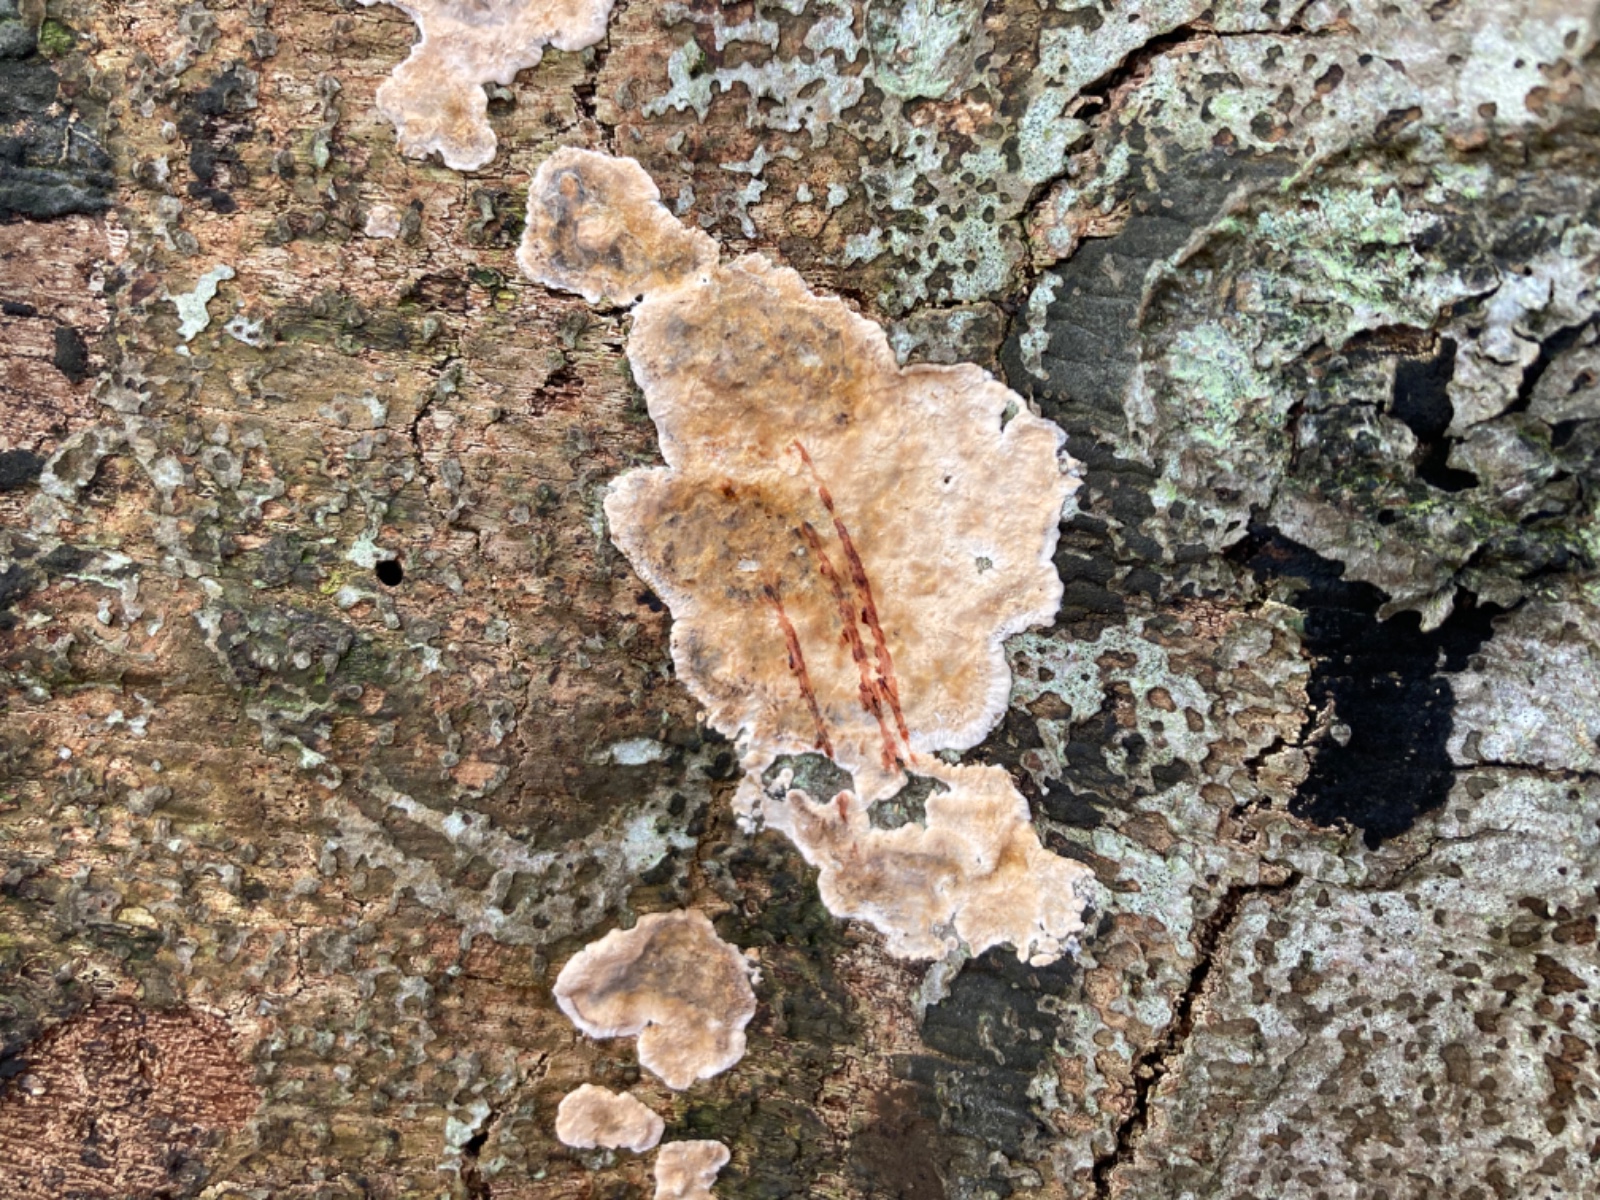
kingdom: Fungi
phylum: Basidiomycota
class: Agaricomycetes
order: Russulales
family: Stereaceae
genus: Stereum
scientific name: Stereum rugosum
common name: rynket lædersvamp
